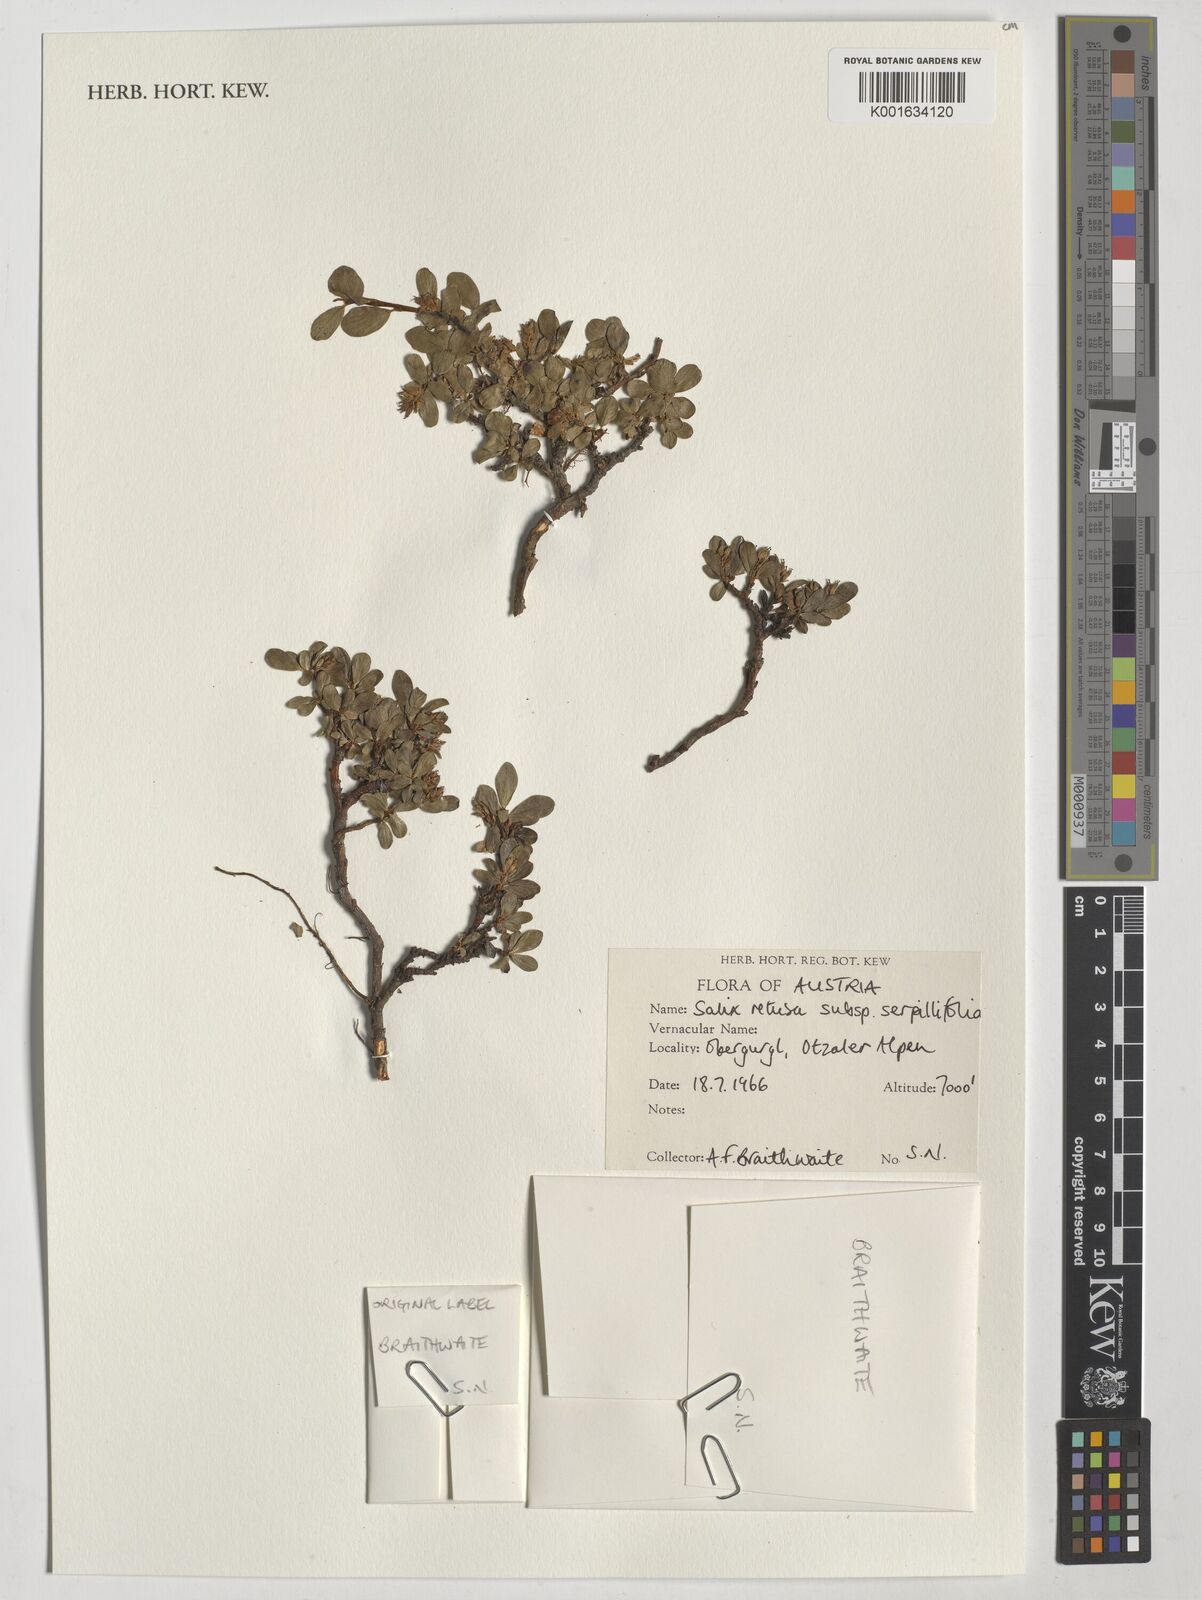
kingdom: Plantae
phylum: Tracheophyta
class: Magnoliopsida
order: Malpighiales
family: Salicaceae
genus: Salix
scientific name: Salix serpillifolia
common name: Thyme-leaf willow
